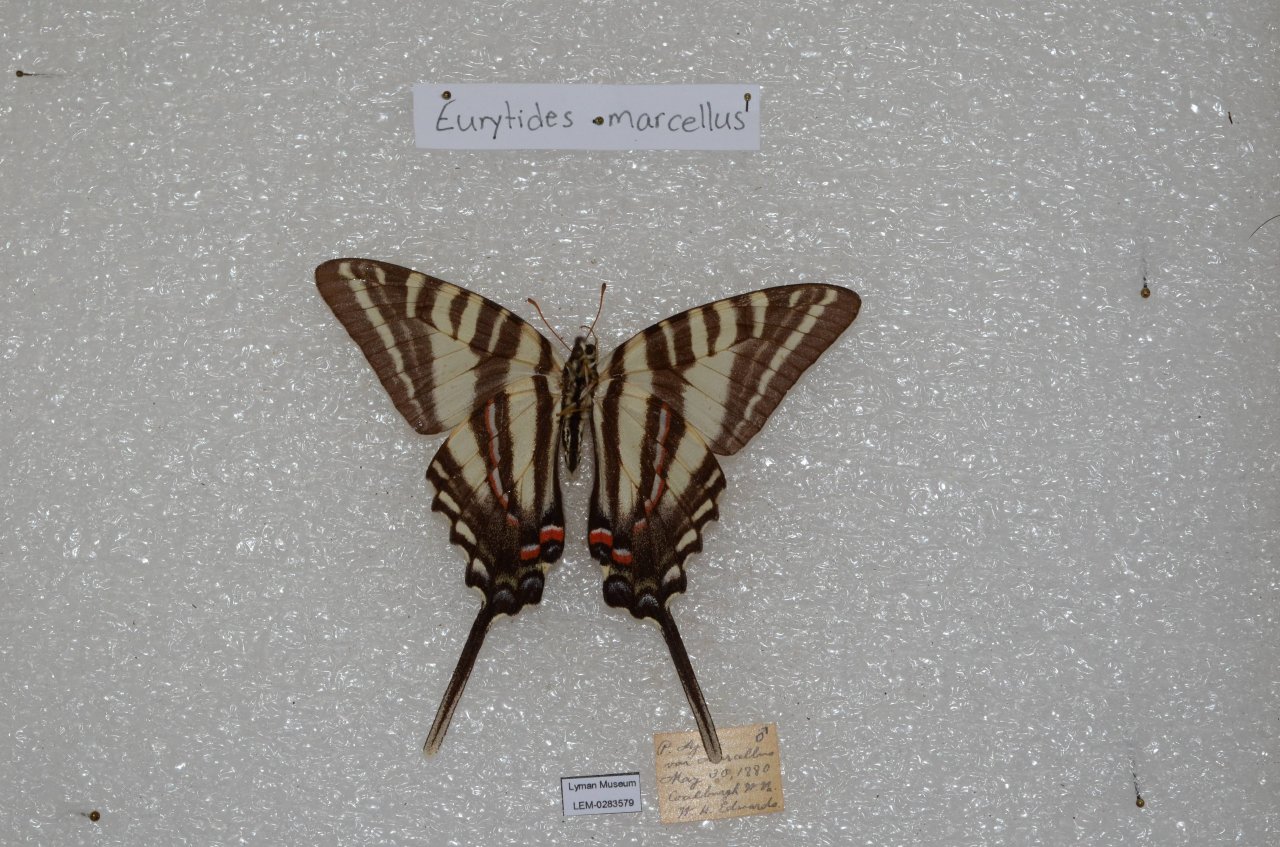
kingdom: Animalia
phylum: Arthropoda
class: Insecta
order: Lepidoptera
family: Papilionidae
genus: Protographium
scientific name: Protographium marcellus
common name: Zebra Swallowtail
